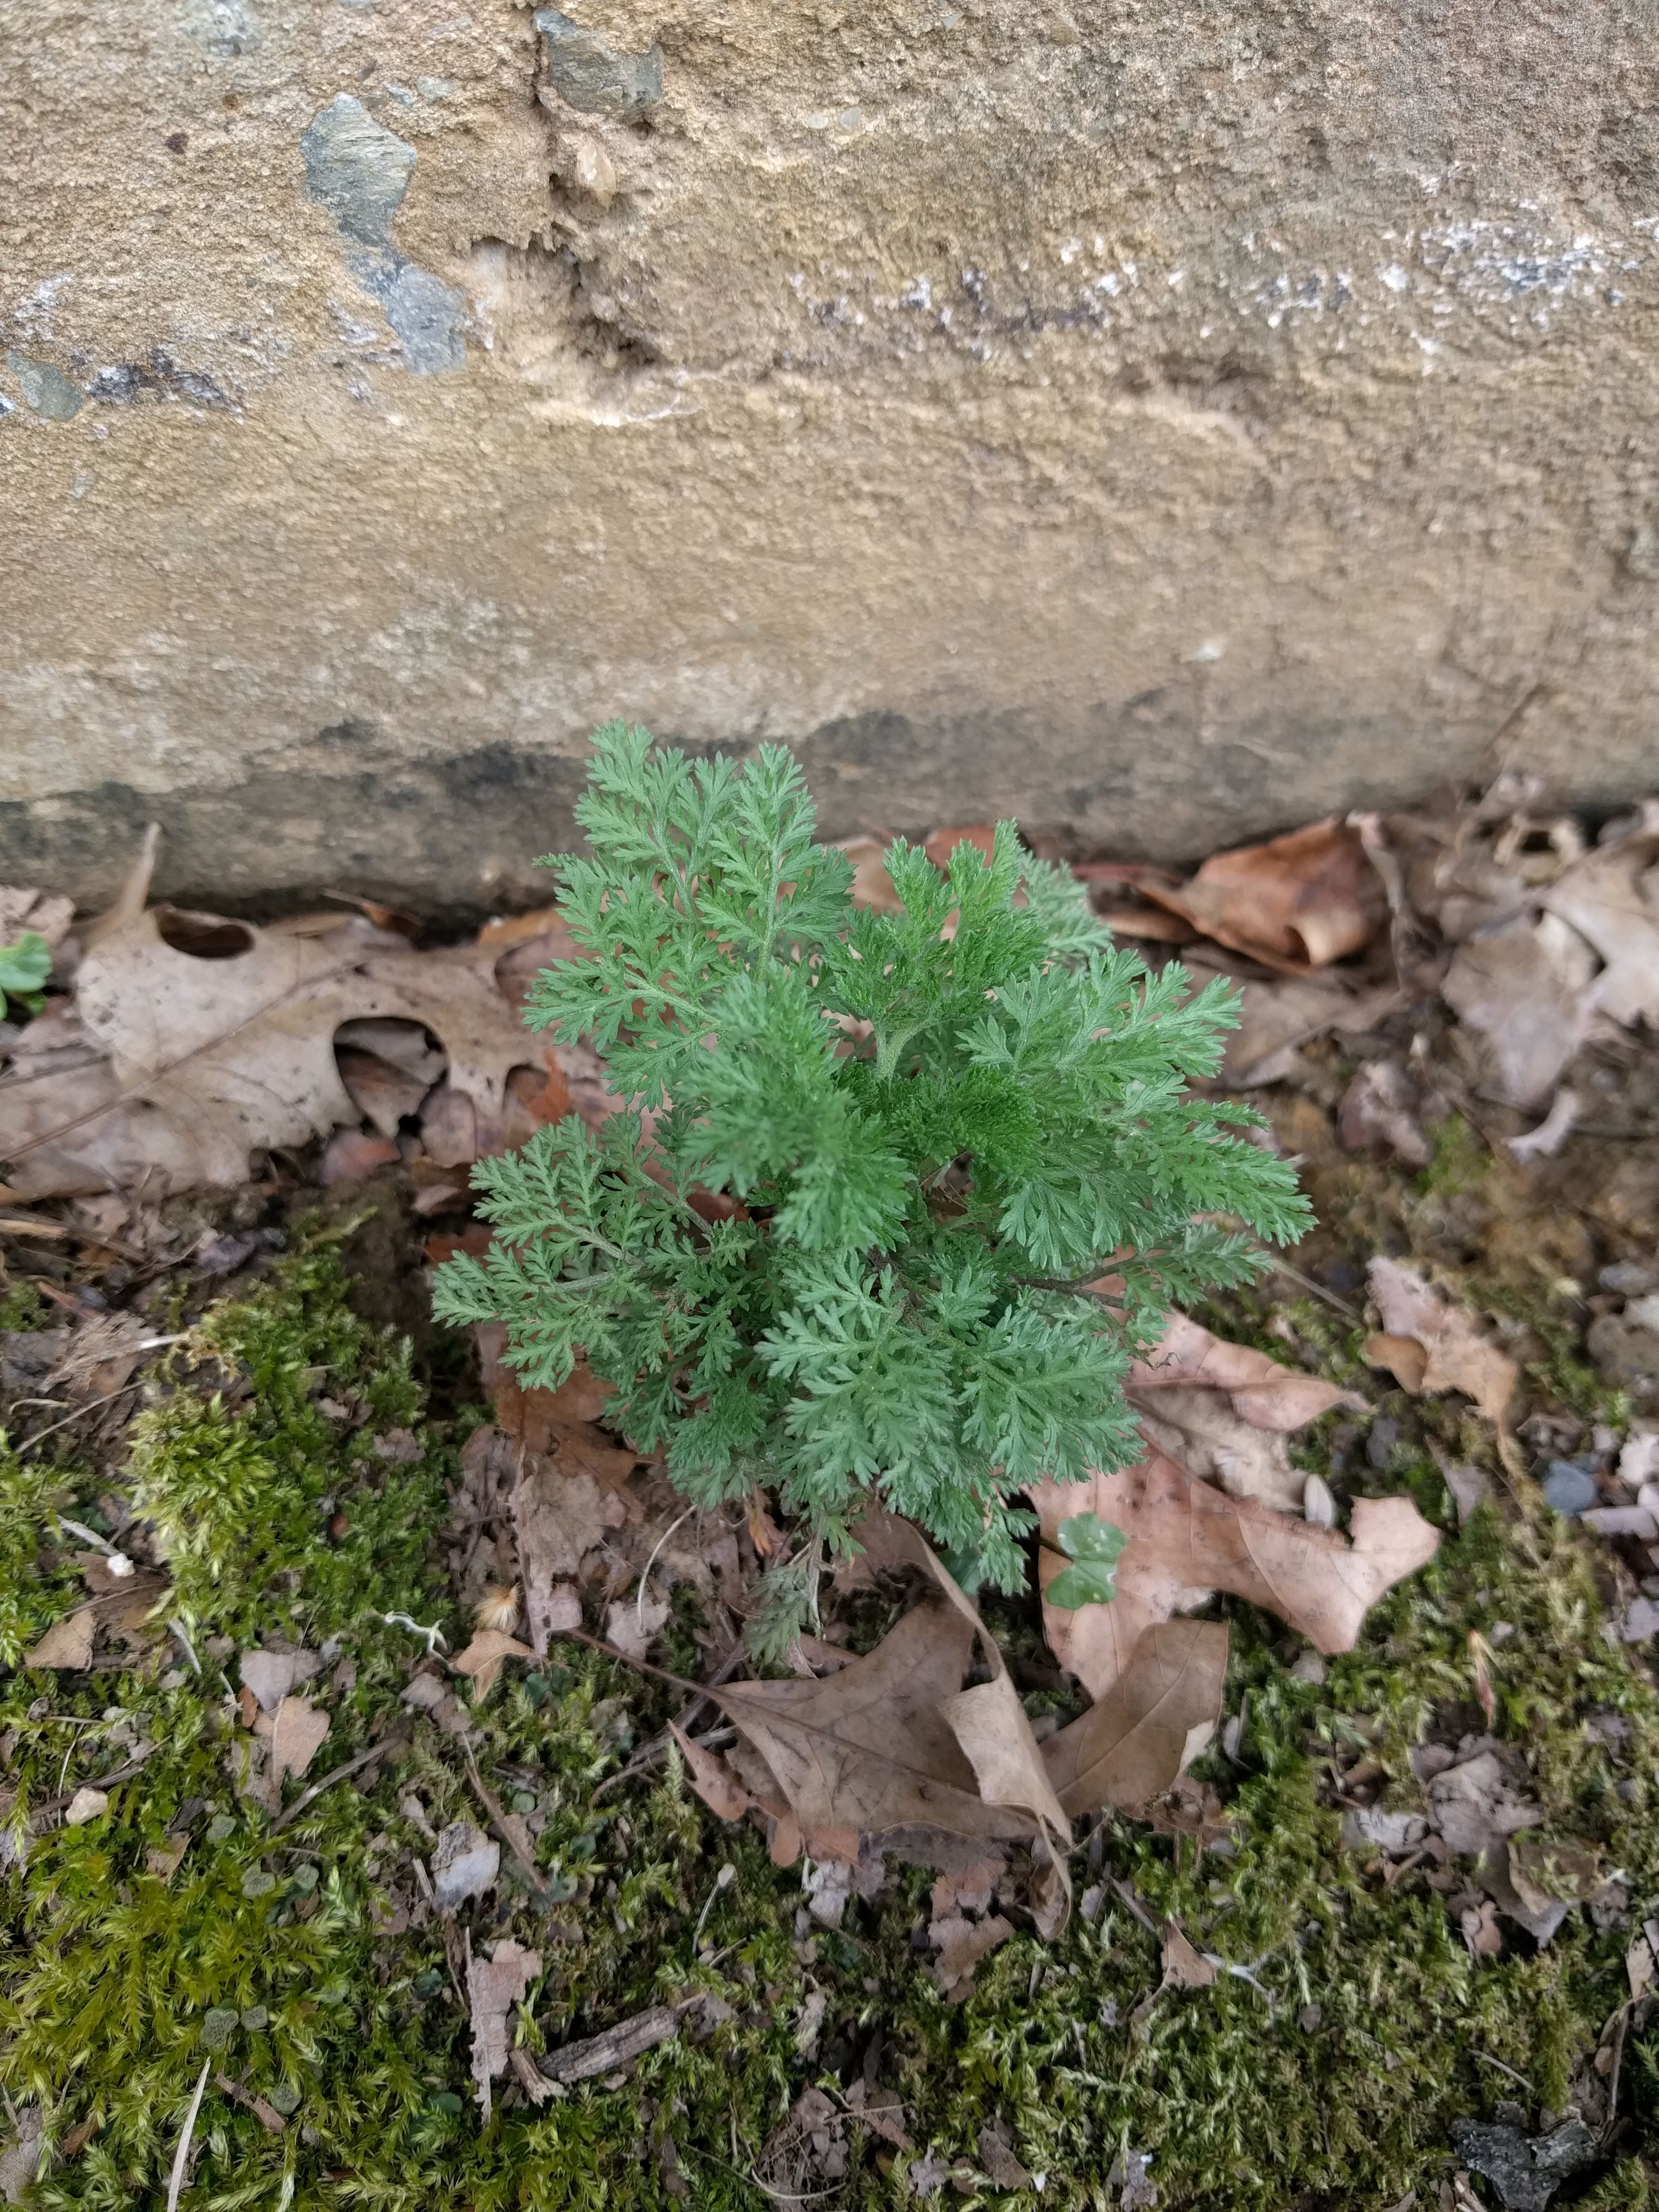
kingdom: Plantae
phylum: Tracheophyta
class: Magnoliopsida
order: Asterales
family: Asteraceae
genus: Artemisia
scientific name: Artemisia pontica
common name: Roman wormwood
